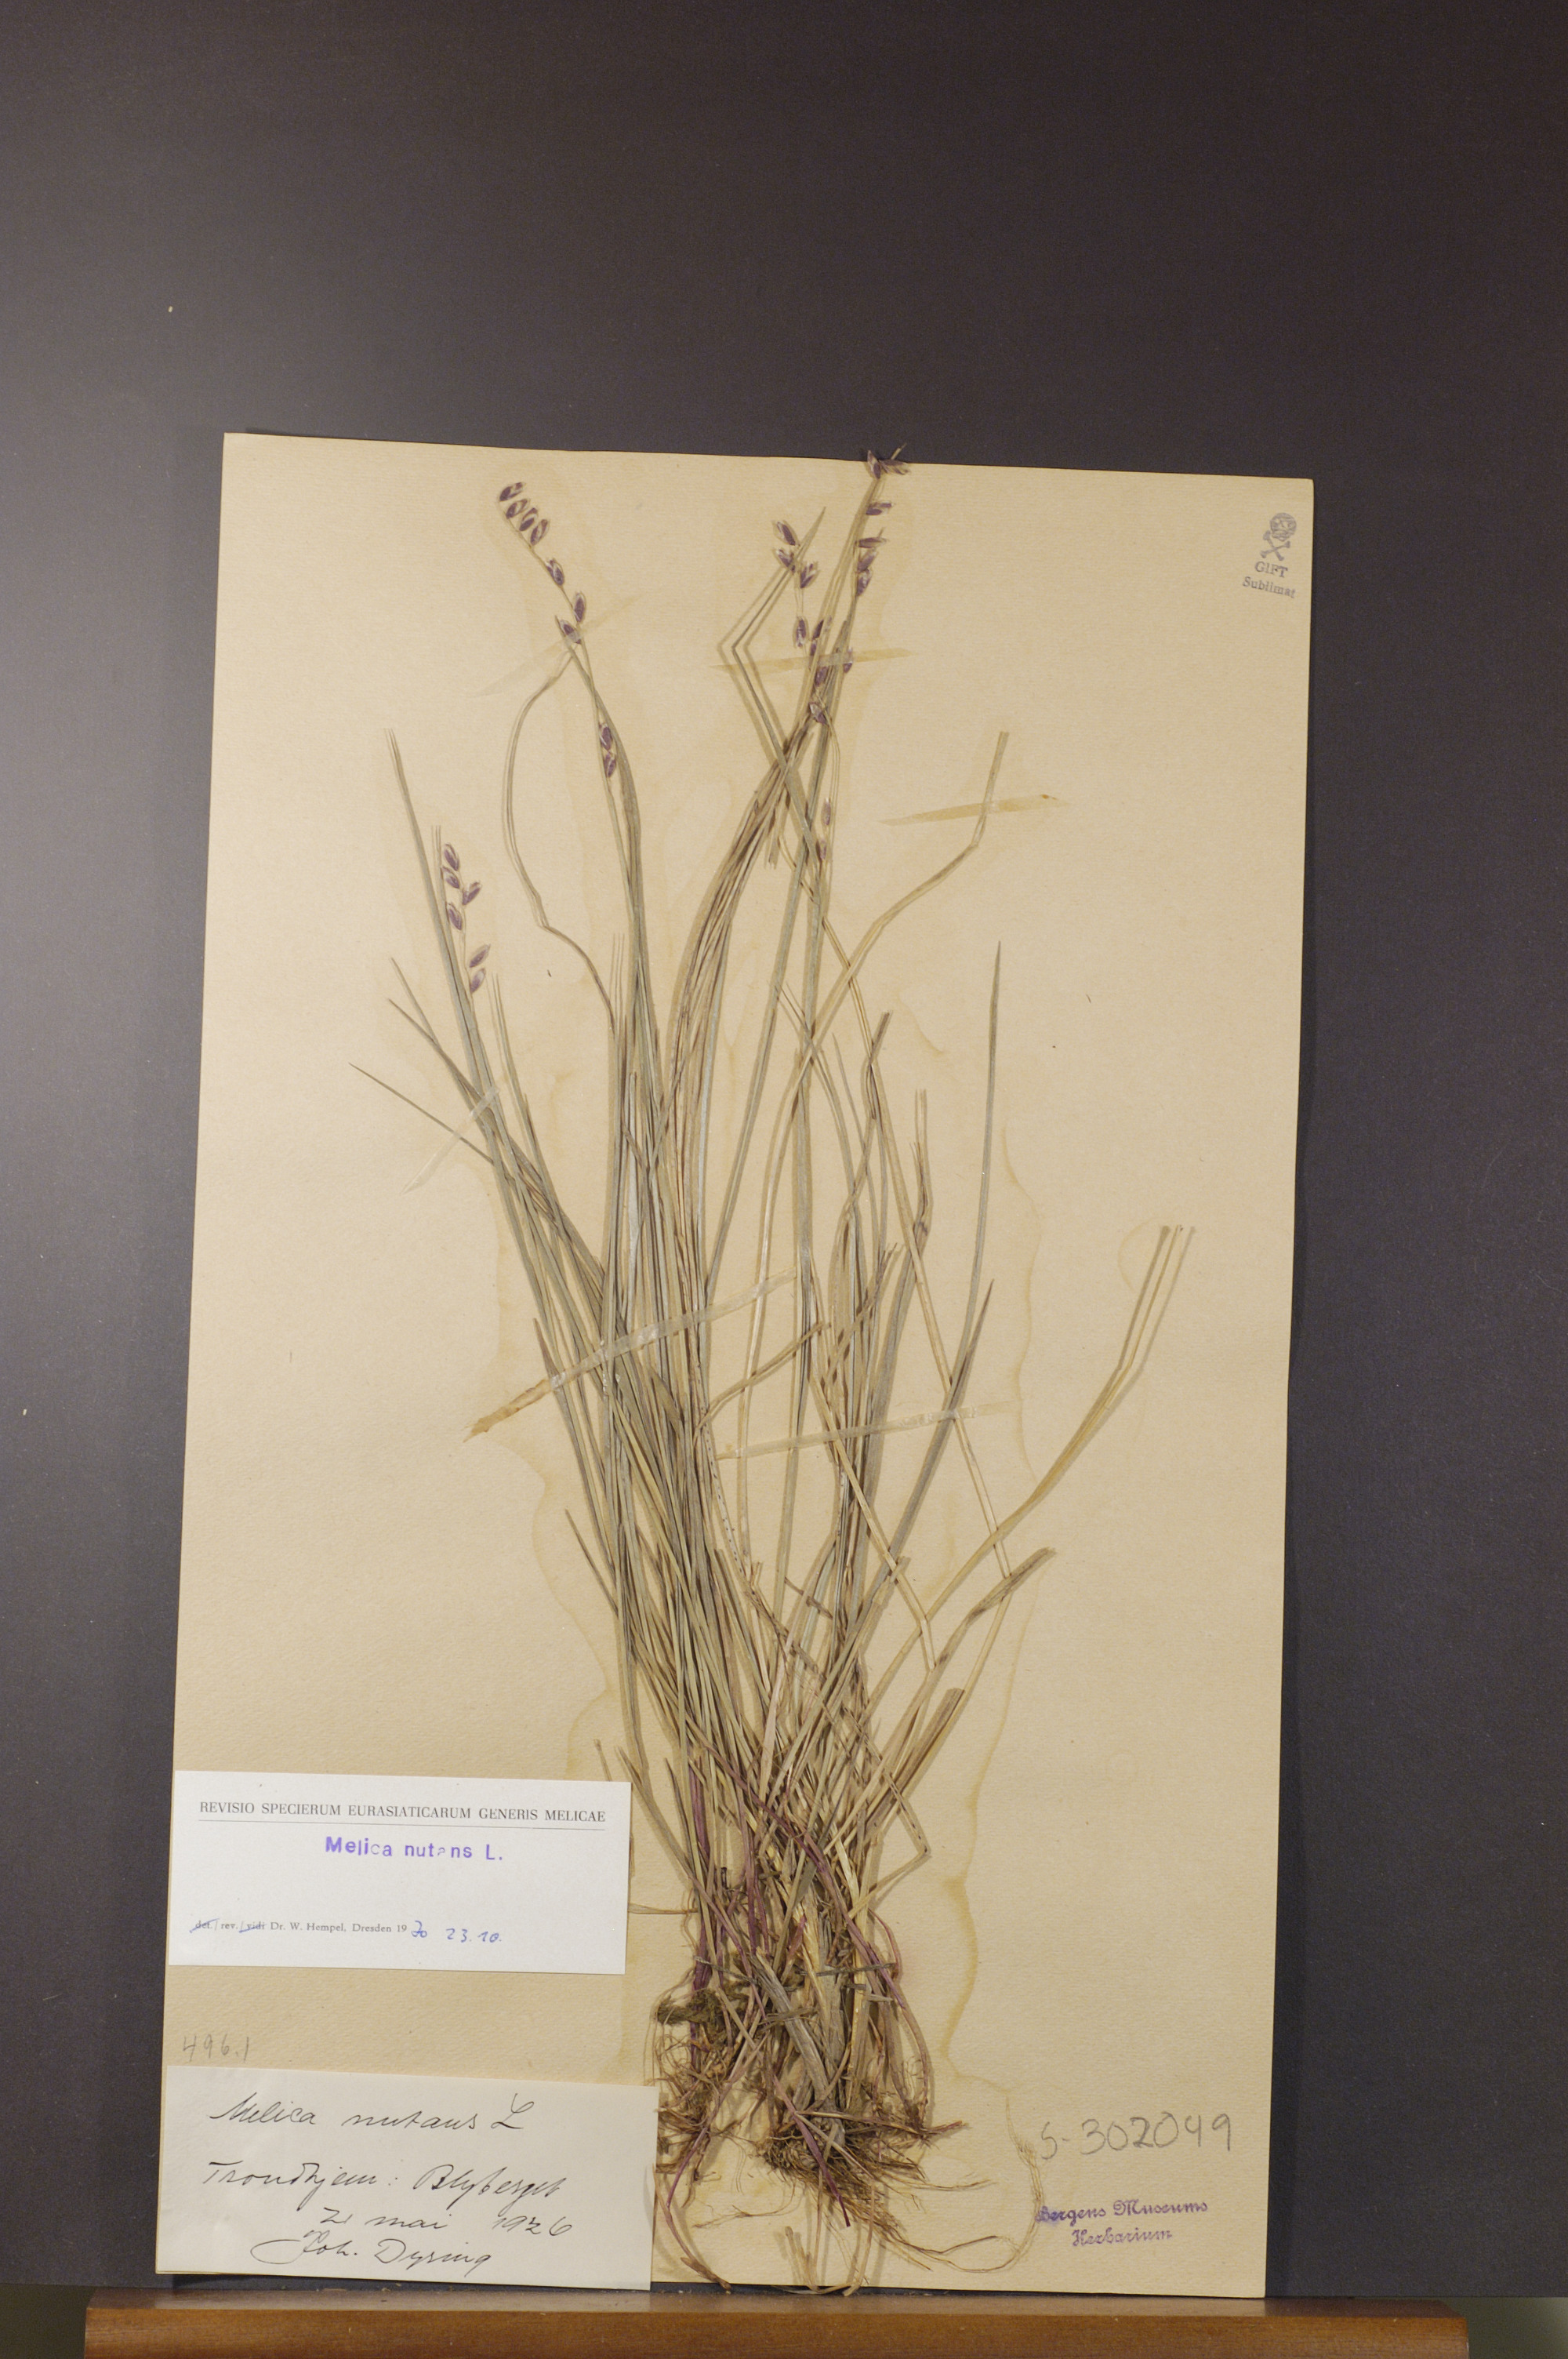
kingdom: Plantae
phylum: Tracheophyta
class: Liliopsida
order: Poales
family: Poaceae
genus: Melica
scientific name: Melica nutans
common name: Mountain melick
